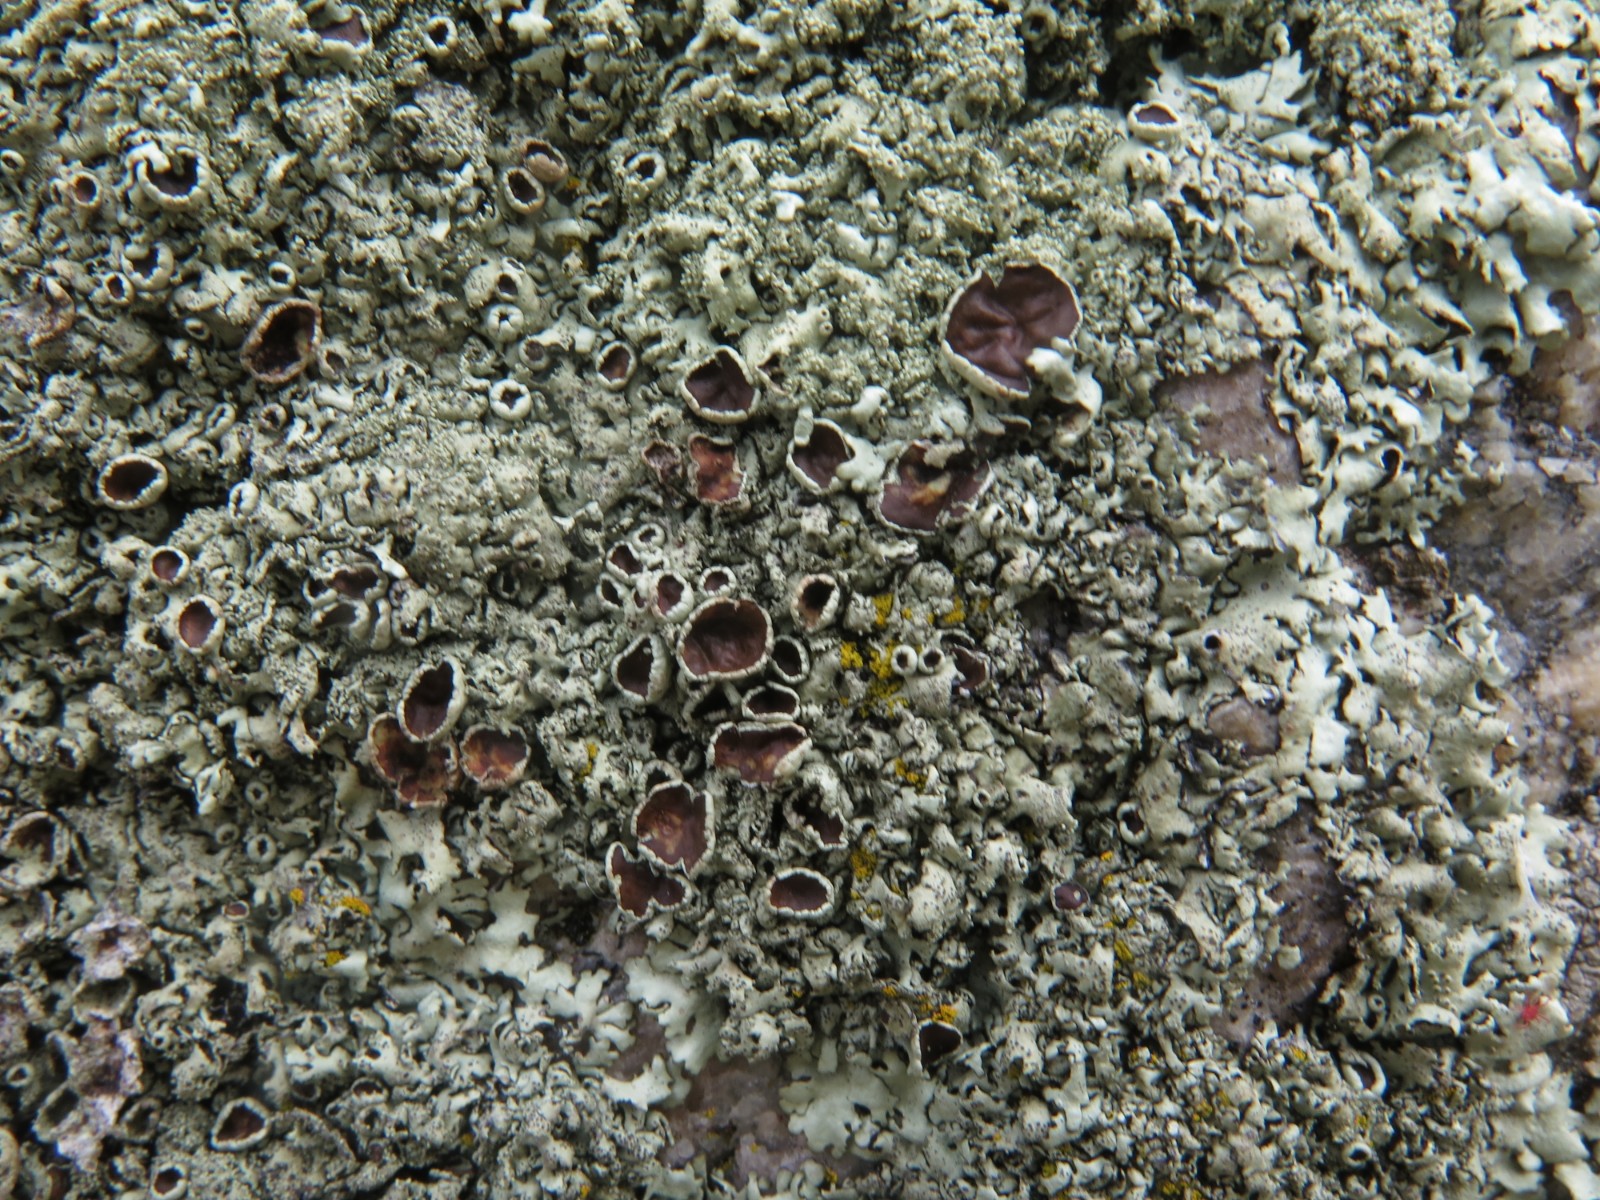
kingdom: Fungi
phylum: Ascomycota
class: Lecanoromycetes
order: Lecanorales
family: Parmeliaceae
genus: Xanthoparmelia
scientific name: Xanthoparmelia conspersa
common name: messing-skållav
